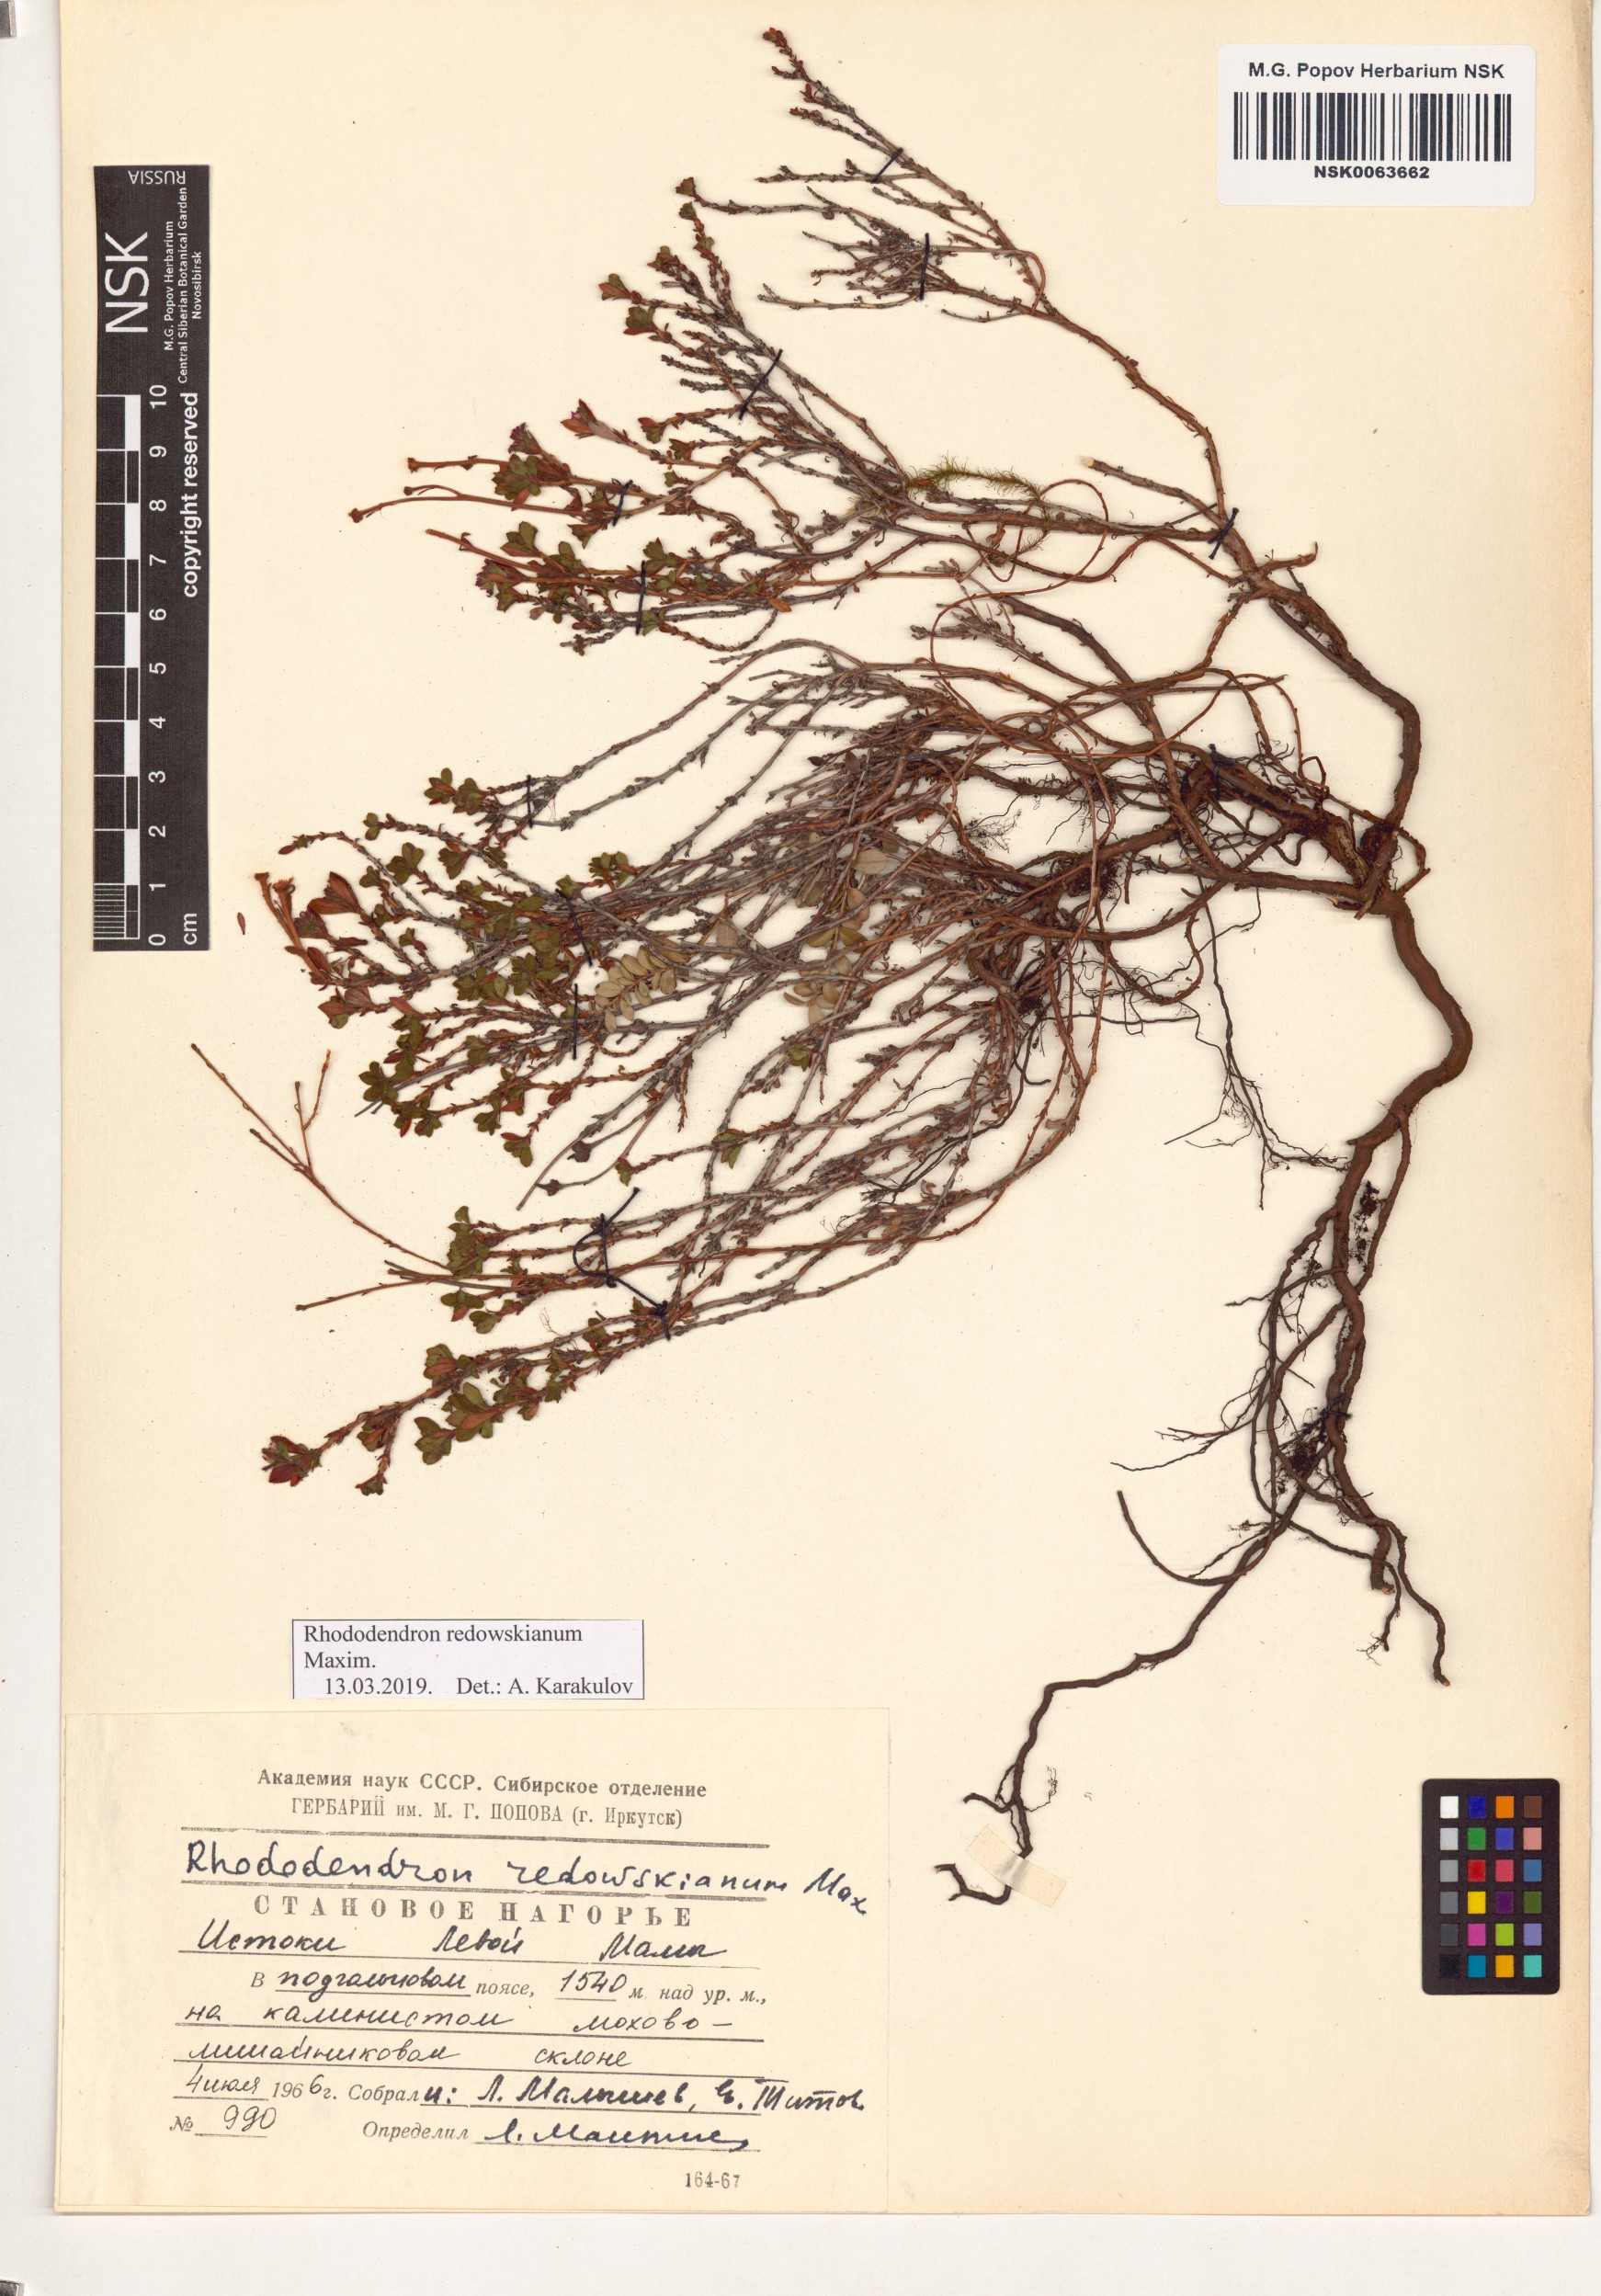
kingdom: Plantae
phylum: Tracheophyta
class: Magnoliopsida
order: Ericales
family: Ericaceae
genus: Rhododendron
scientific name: Rhododendron redowskianum
